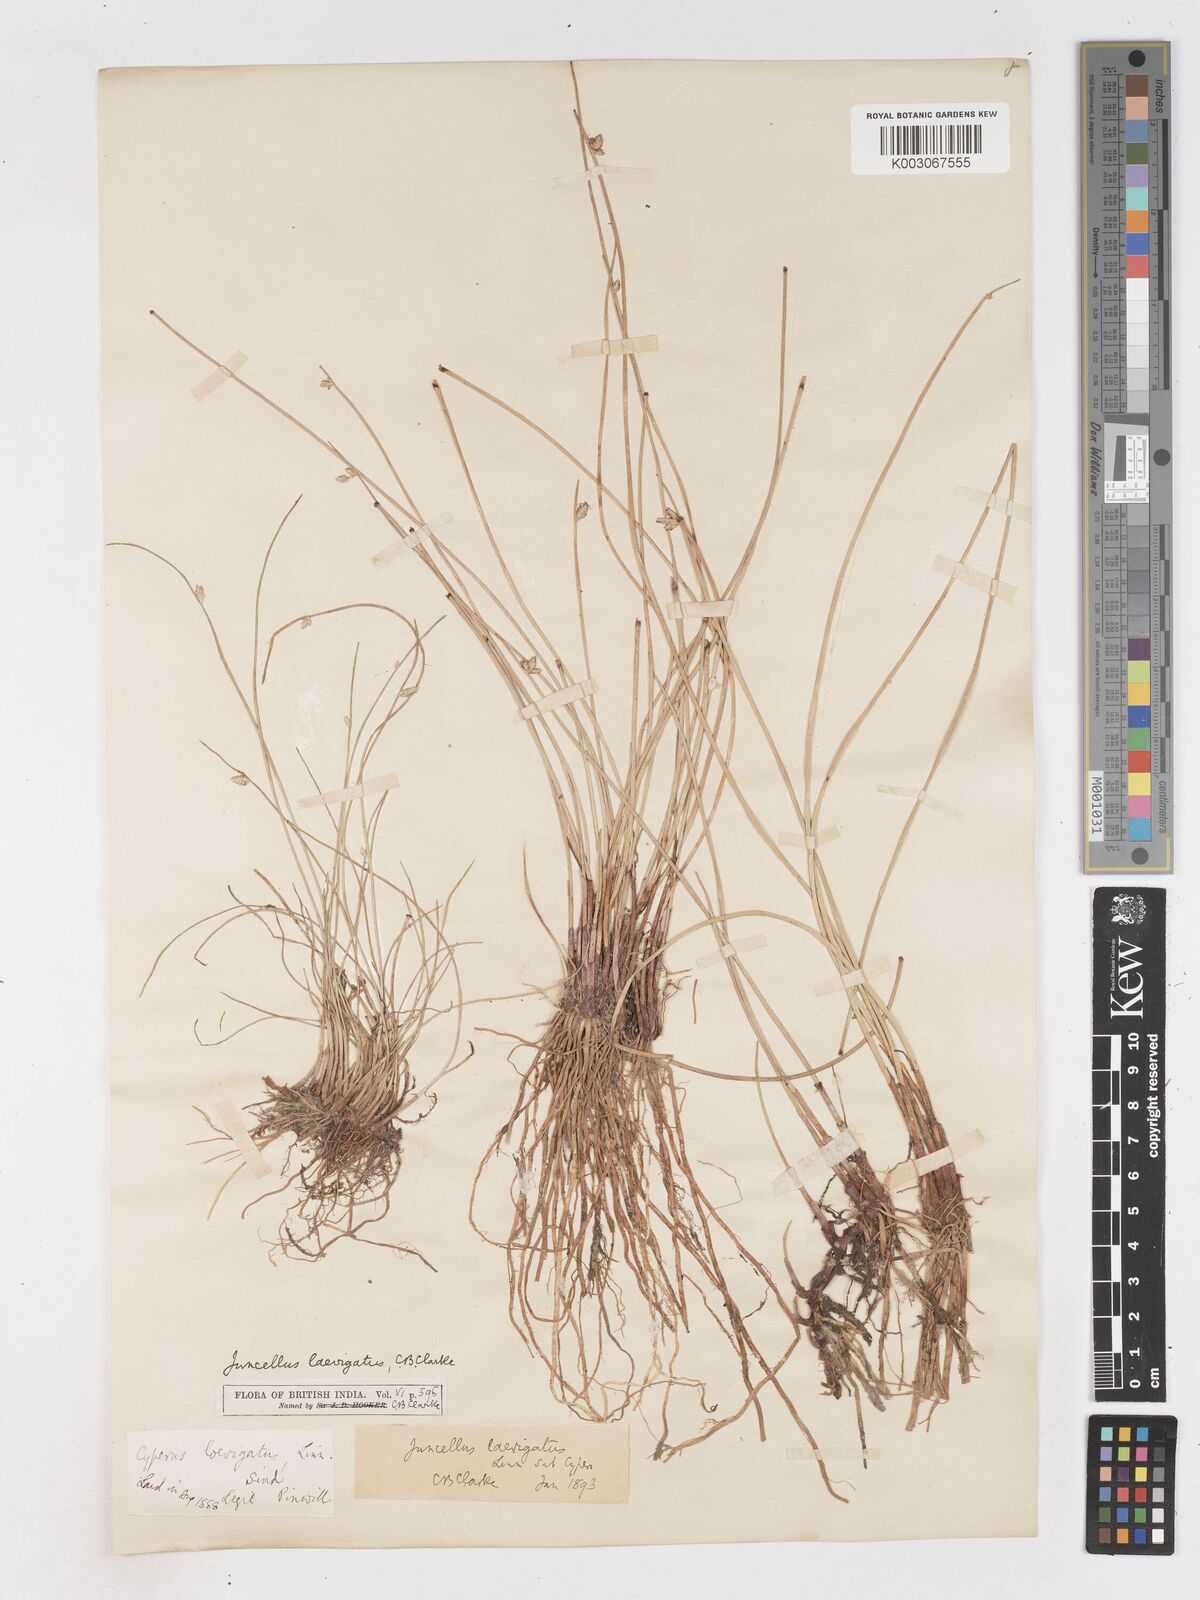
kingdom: Plantae
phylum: Tracheophyta
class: Liliopsida
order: Poales
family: Cyperaceae
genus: Cyperus
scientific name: Cyperus laevigatus
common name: Smooth flat sedge
